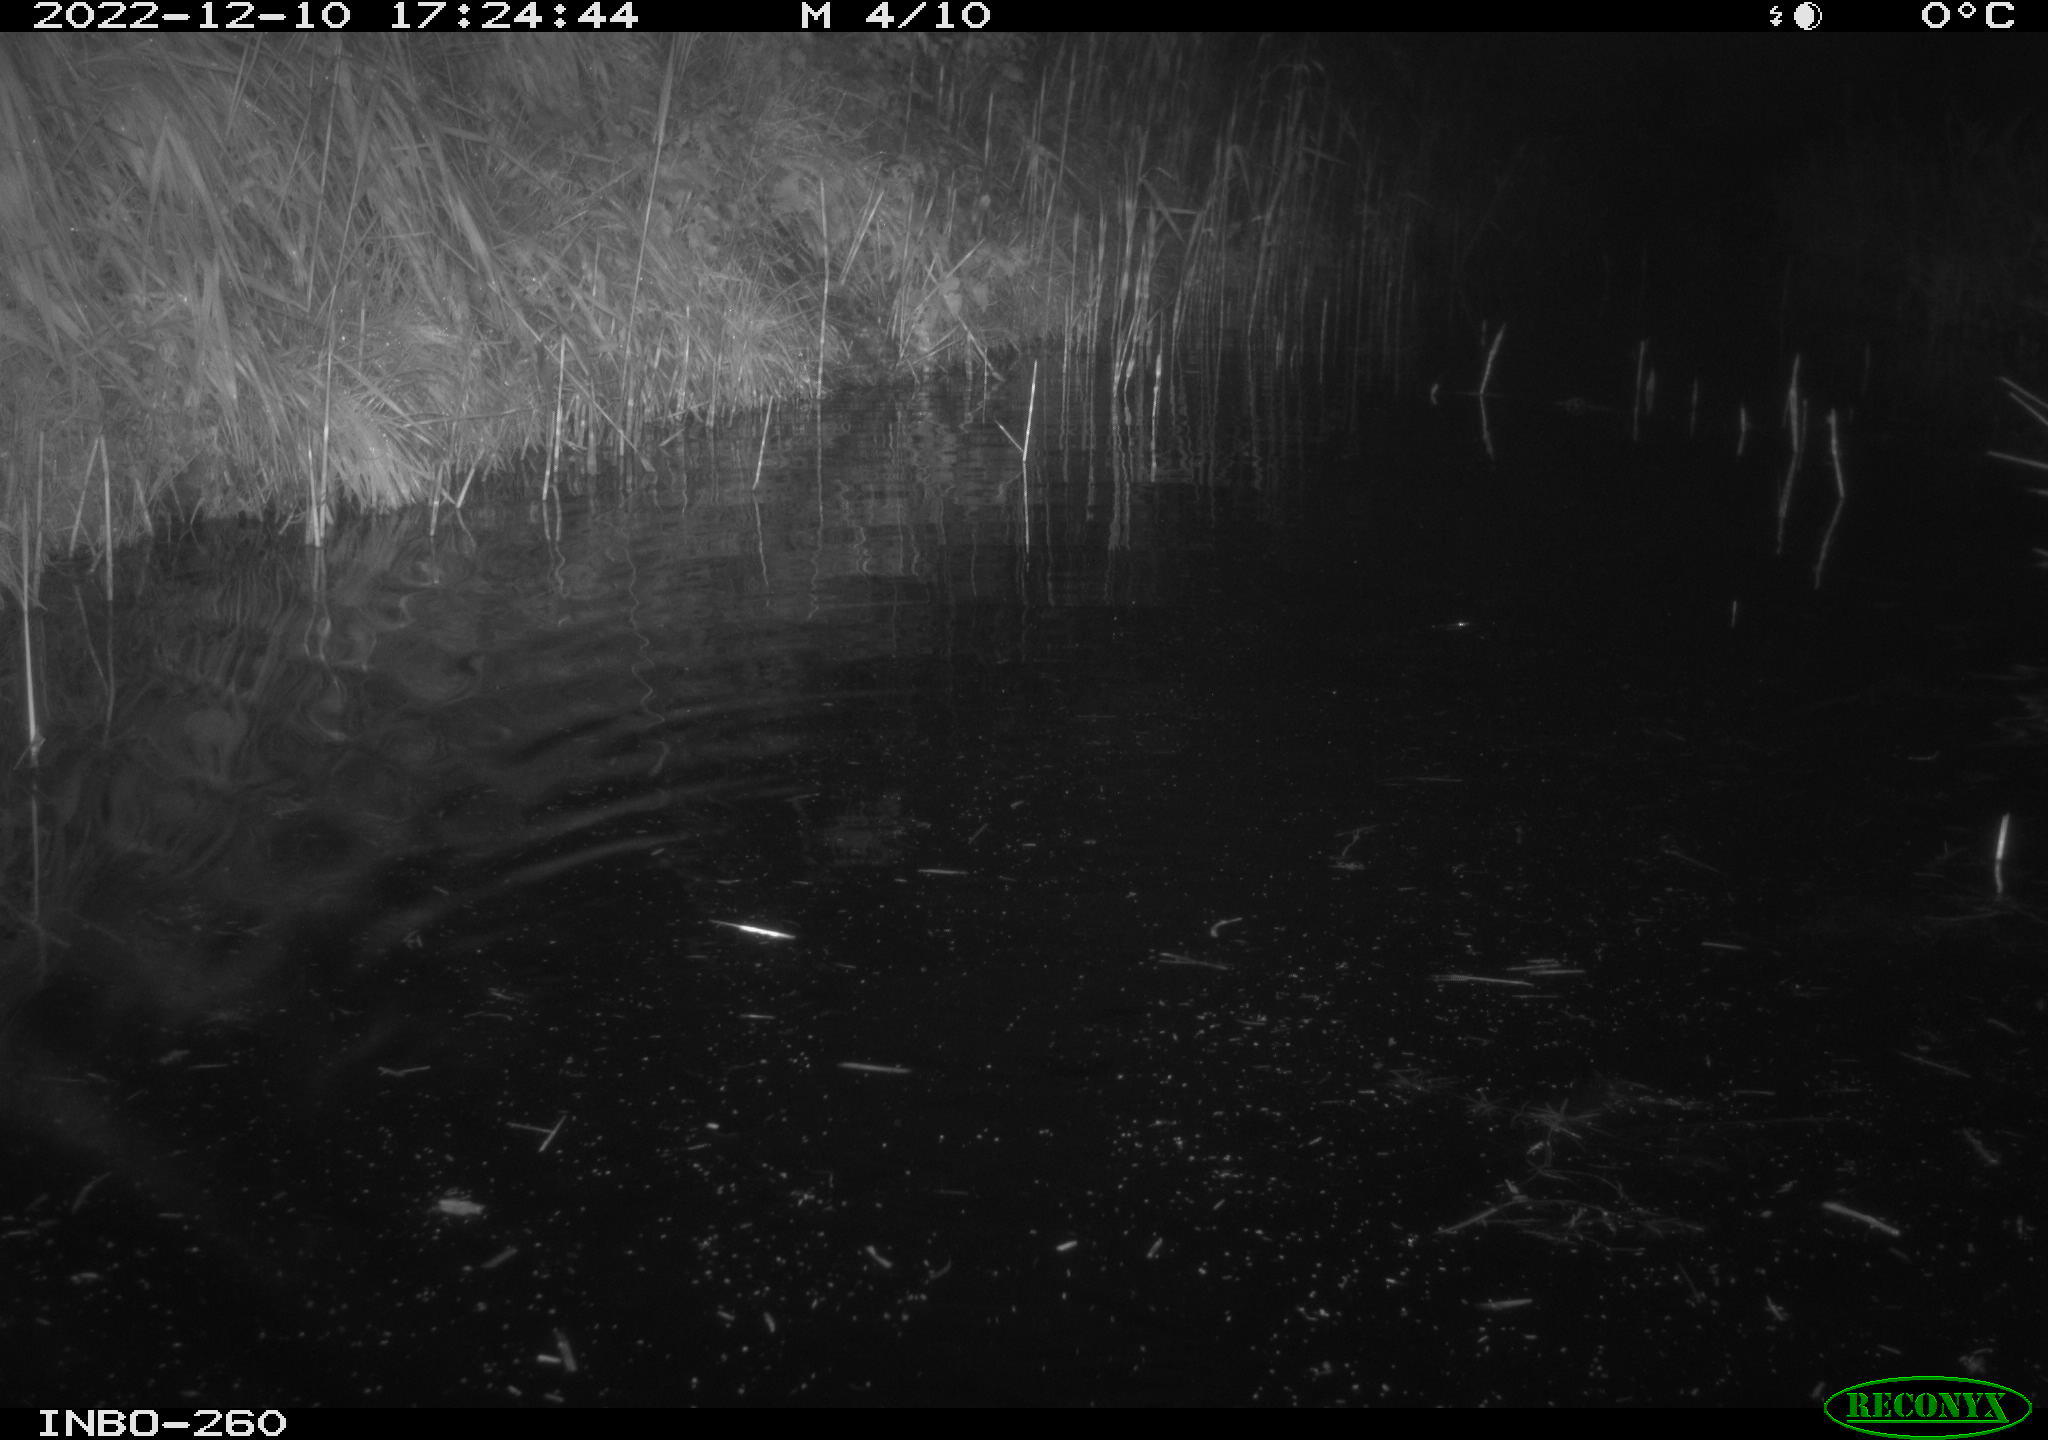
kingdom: Animalia
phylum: Chordata
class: Mammalia
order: Rodentia
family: Cricetidae
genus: Ondatra
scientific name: Ondatra zibethicus
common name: Muskrat
